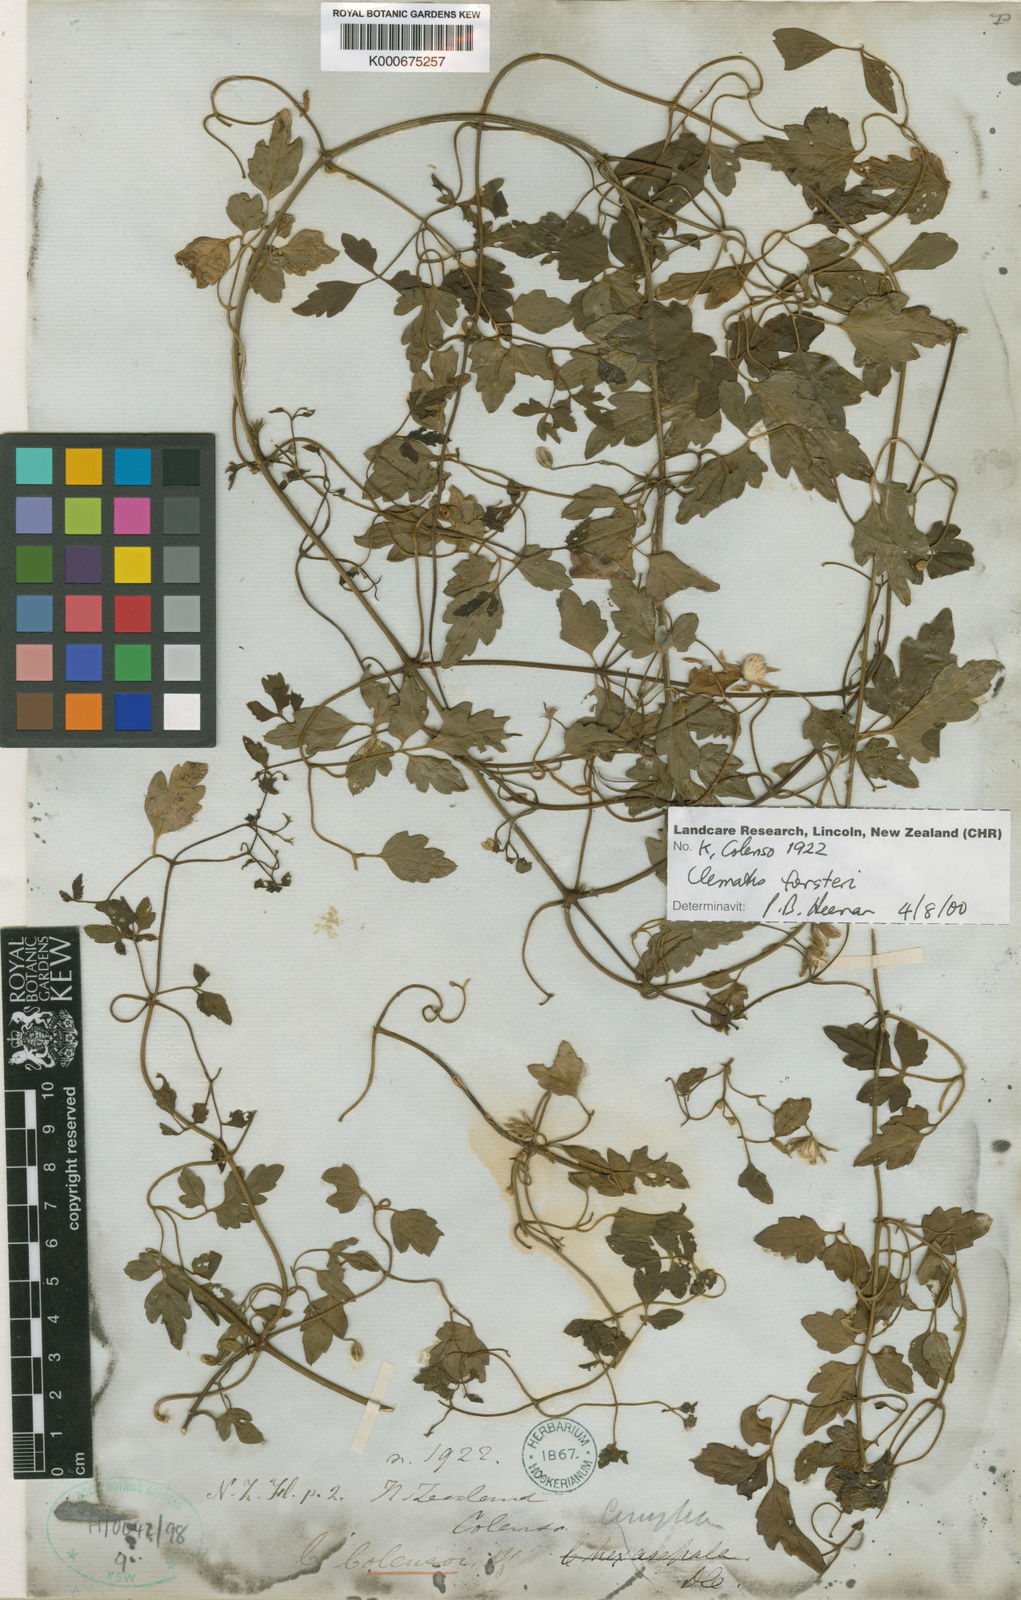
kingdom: Plantae
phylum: Tracheophyta
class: Magnoliopsida
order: Ranunculales
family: Ranunculaceae
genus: Clematis
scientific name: Clematis forsteri
